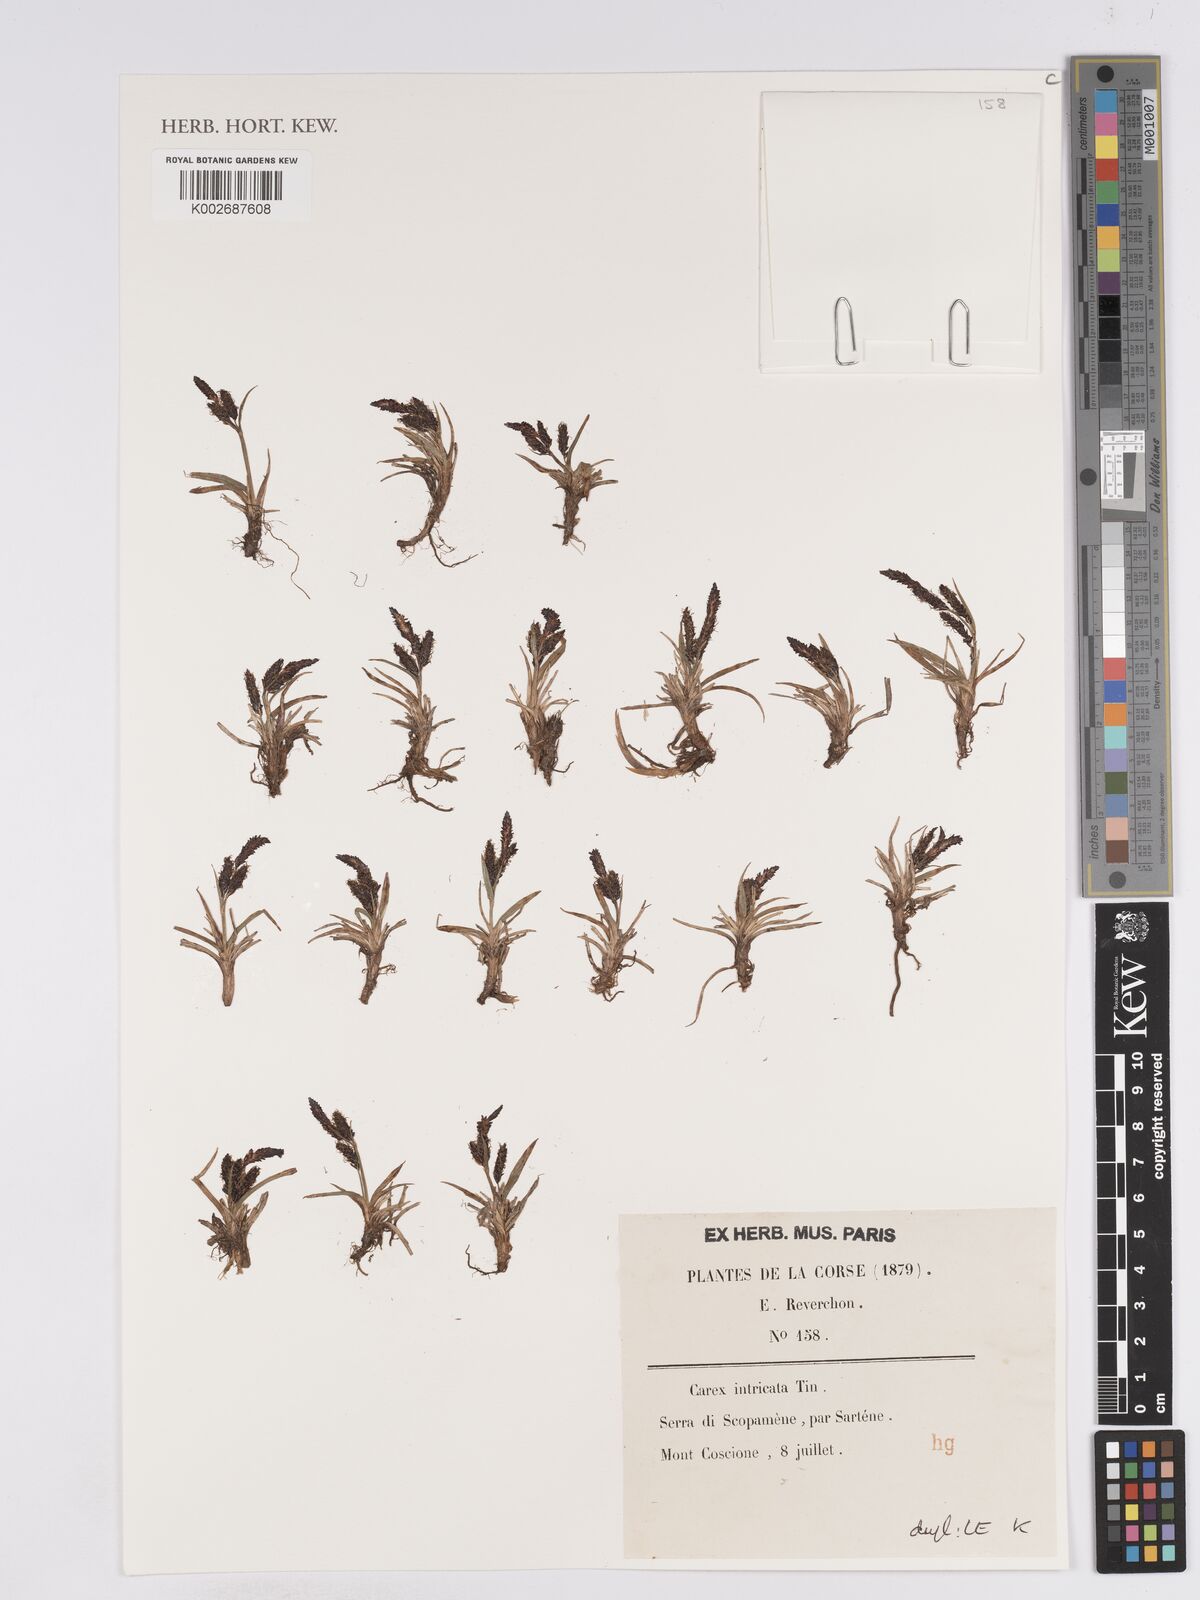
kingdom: Plantae
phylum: Tracheophyta
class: Liliopsida
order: Poales
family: Cyperaceae
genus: Carex
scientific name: Carex nigra
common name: Common sedge
